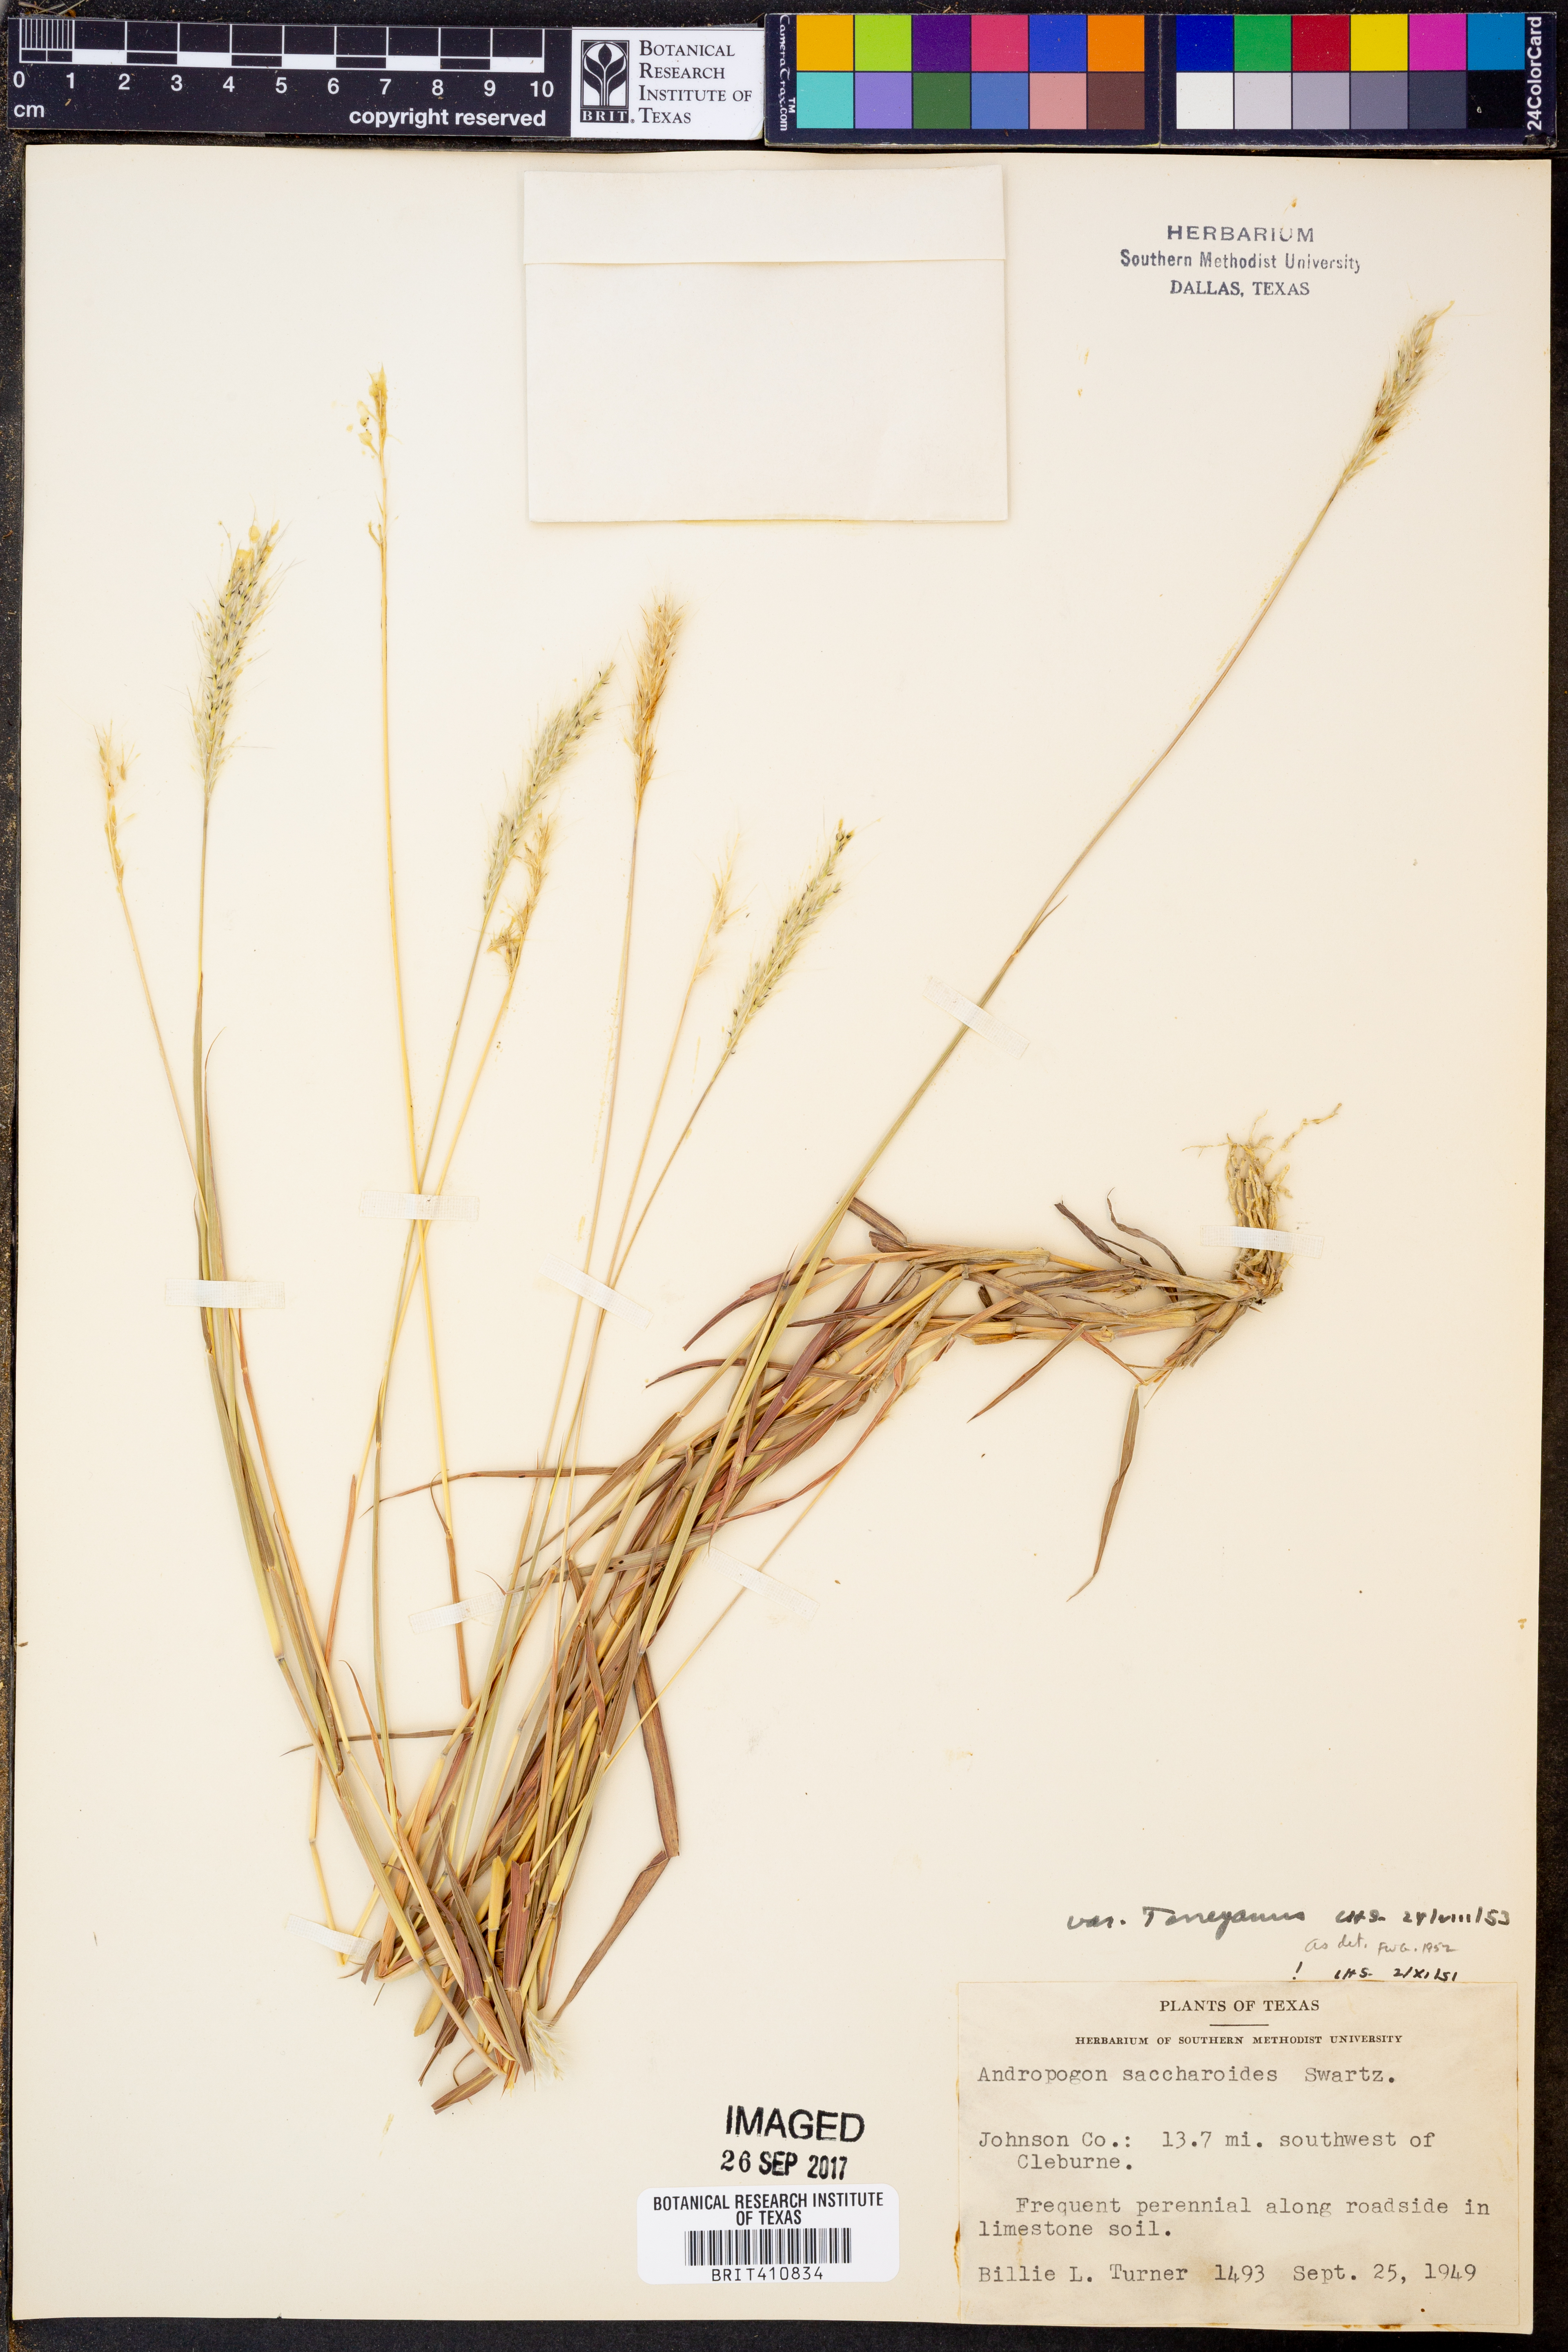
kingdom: Plantae
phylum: Tracheophyta
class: Liliopsida
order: Poales
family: Poaceae
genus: Bothriochloa
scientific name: Bothriochloa torreyana
